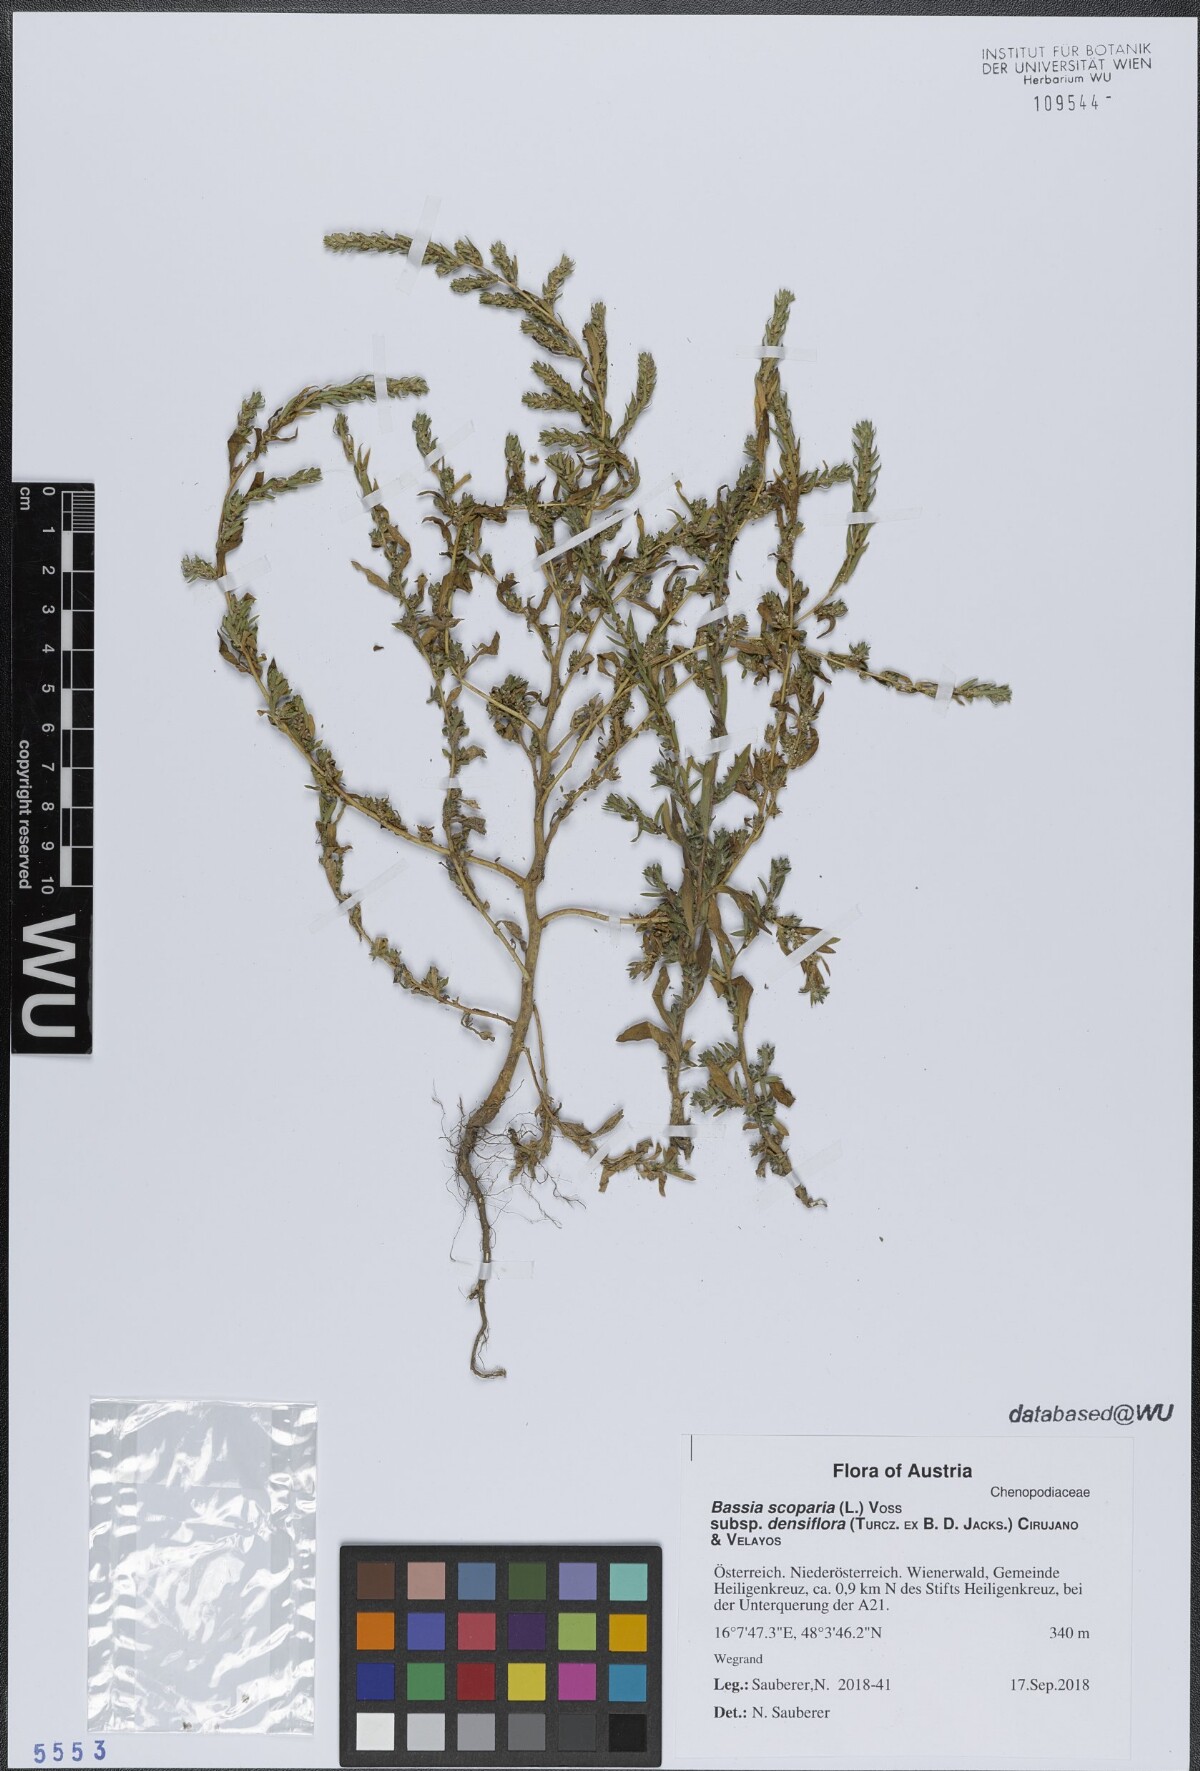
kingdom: Plantae
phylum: Tracheophyta
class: Magnoliopsida
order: Caryophyllales
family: Amaranthaceae
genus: Bassia
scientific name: Bassia scoparia
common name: Belvedere
